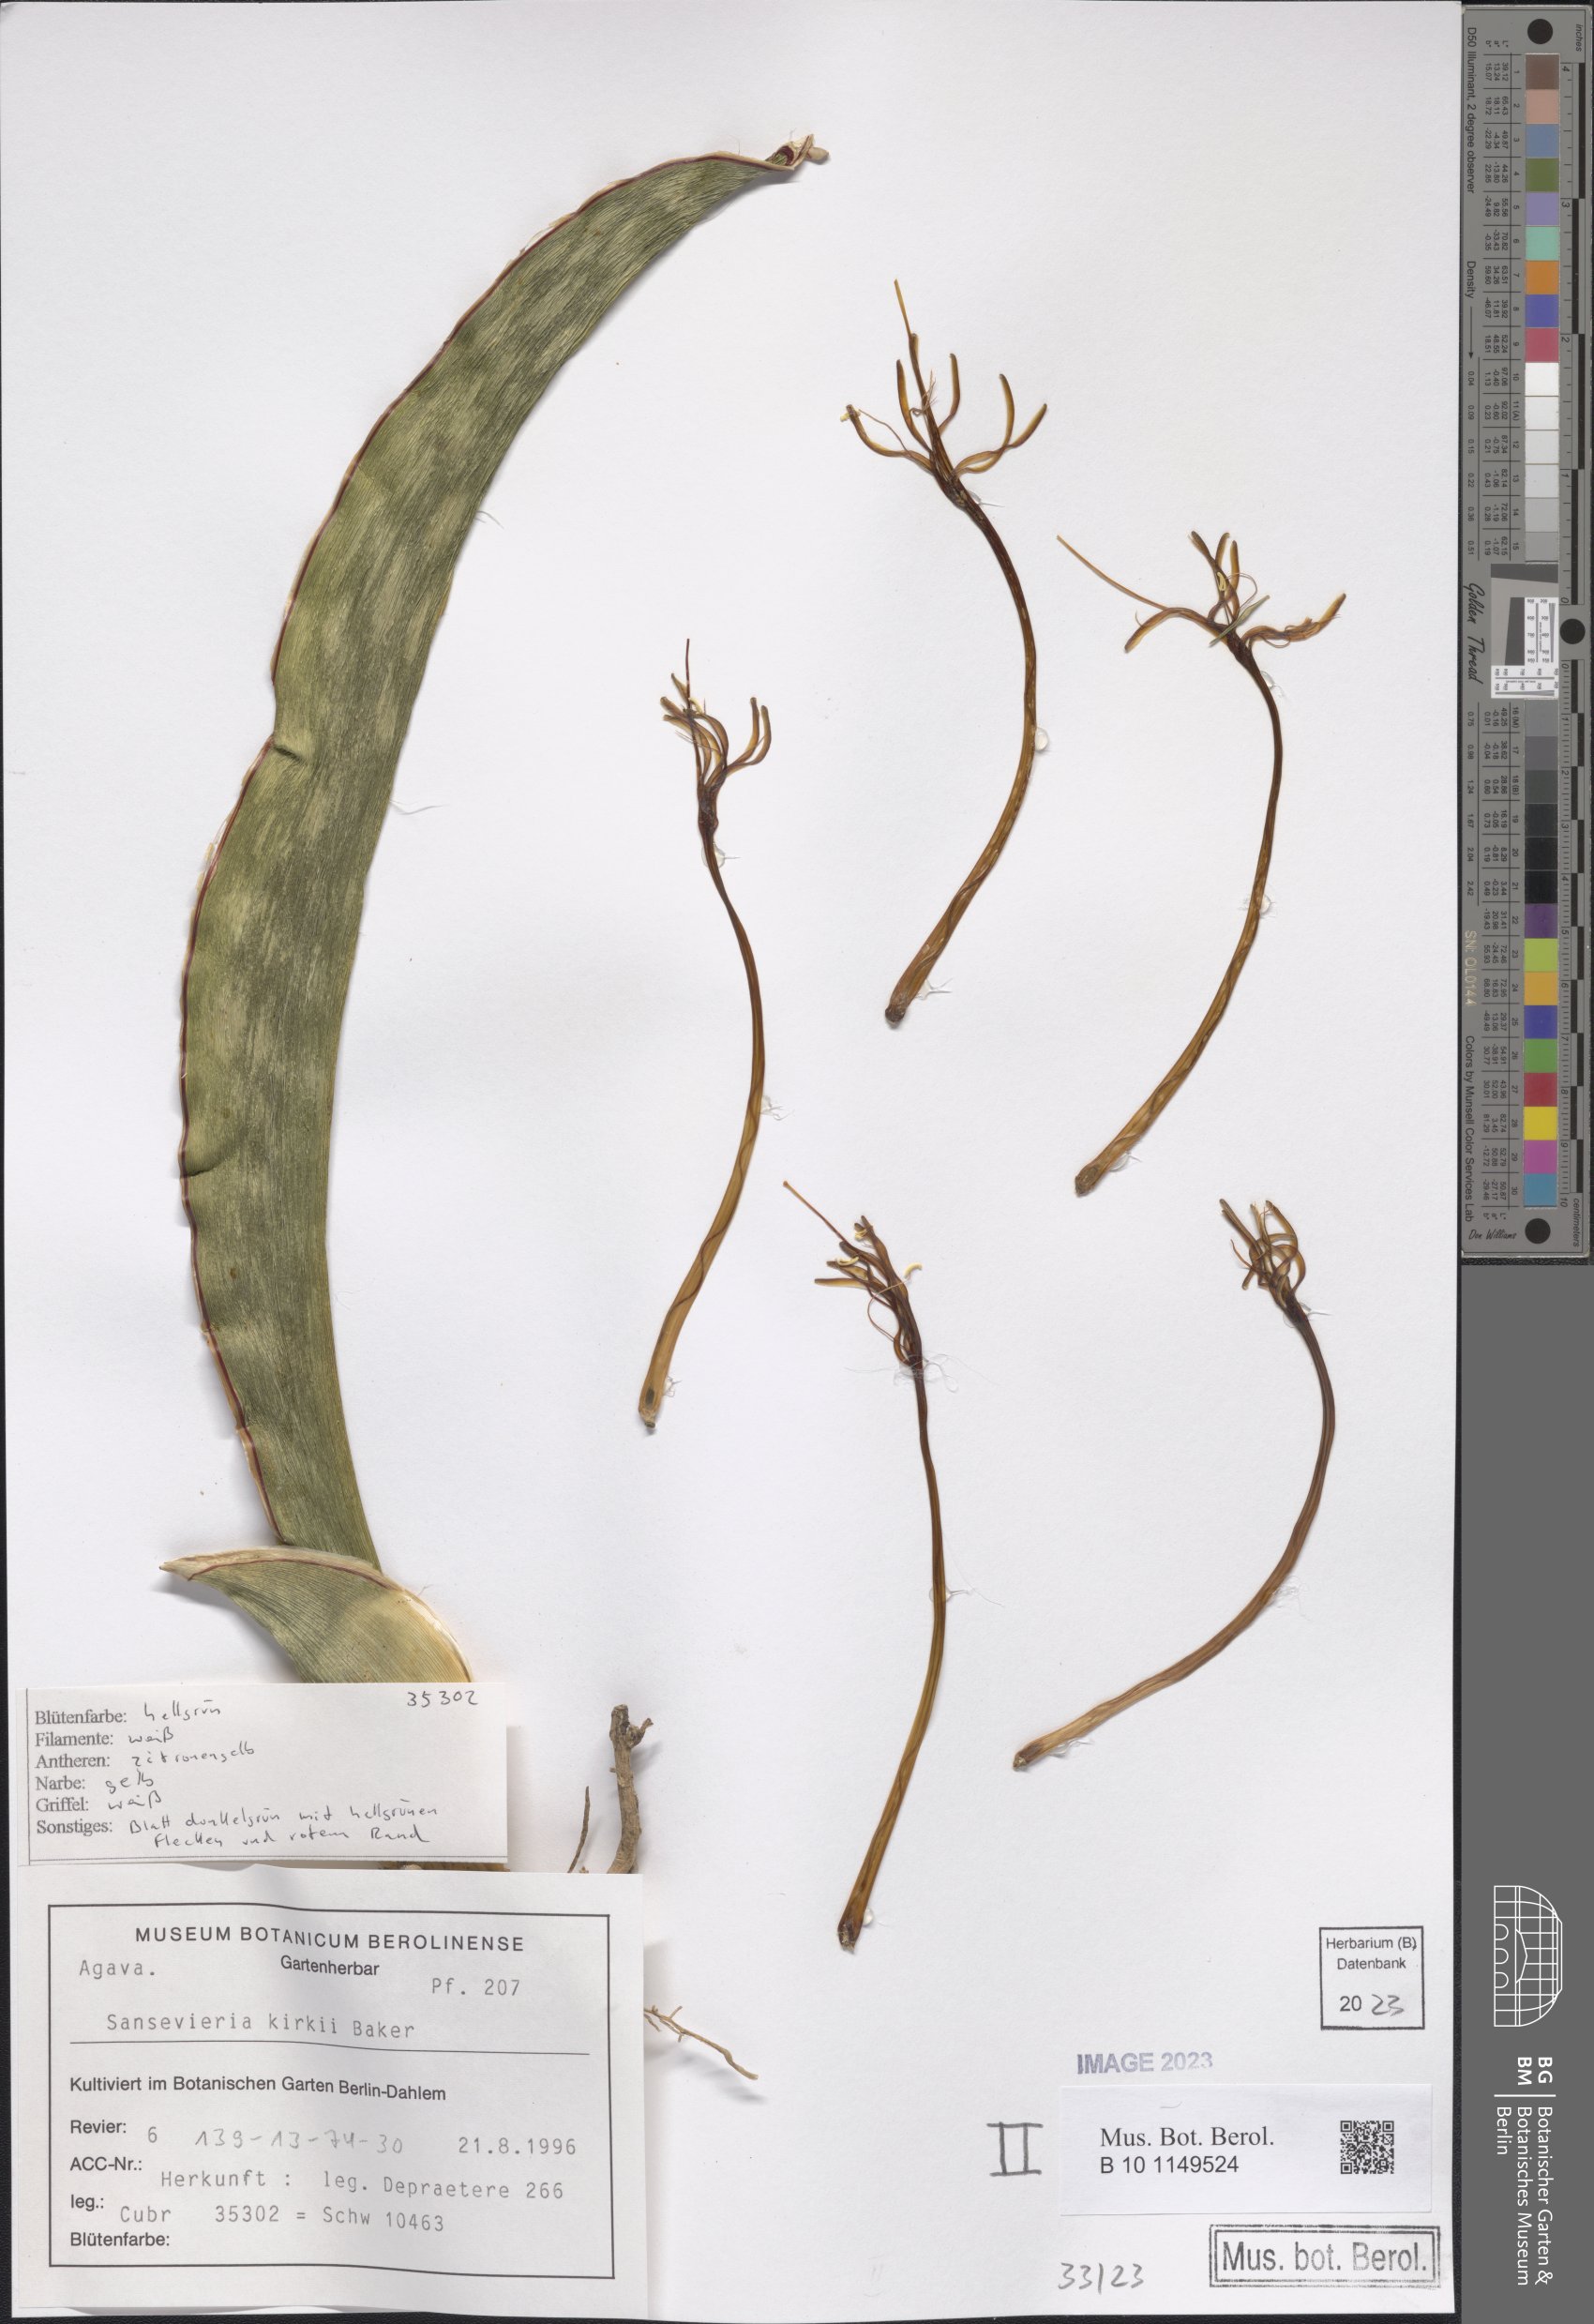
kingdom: Plantae
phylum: Tracheophyta
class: Liliopsida
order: Asparagales
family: Asparagaceae
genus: Dracaena
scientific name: Dracaena pethera
